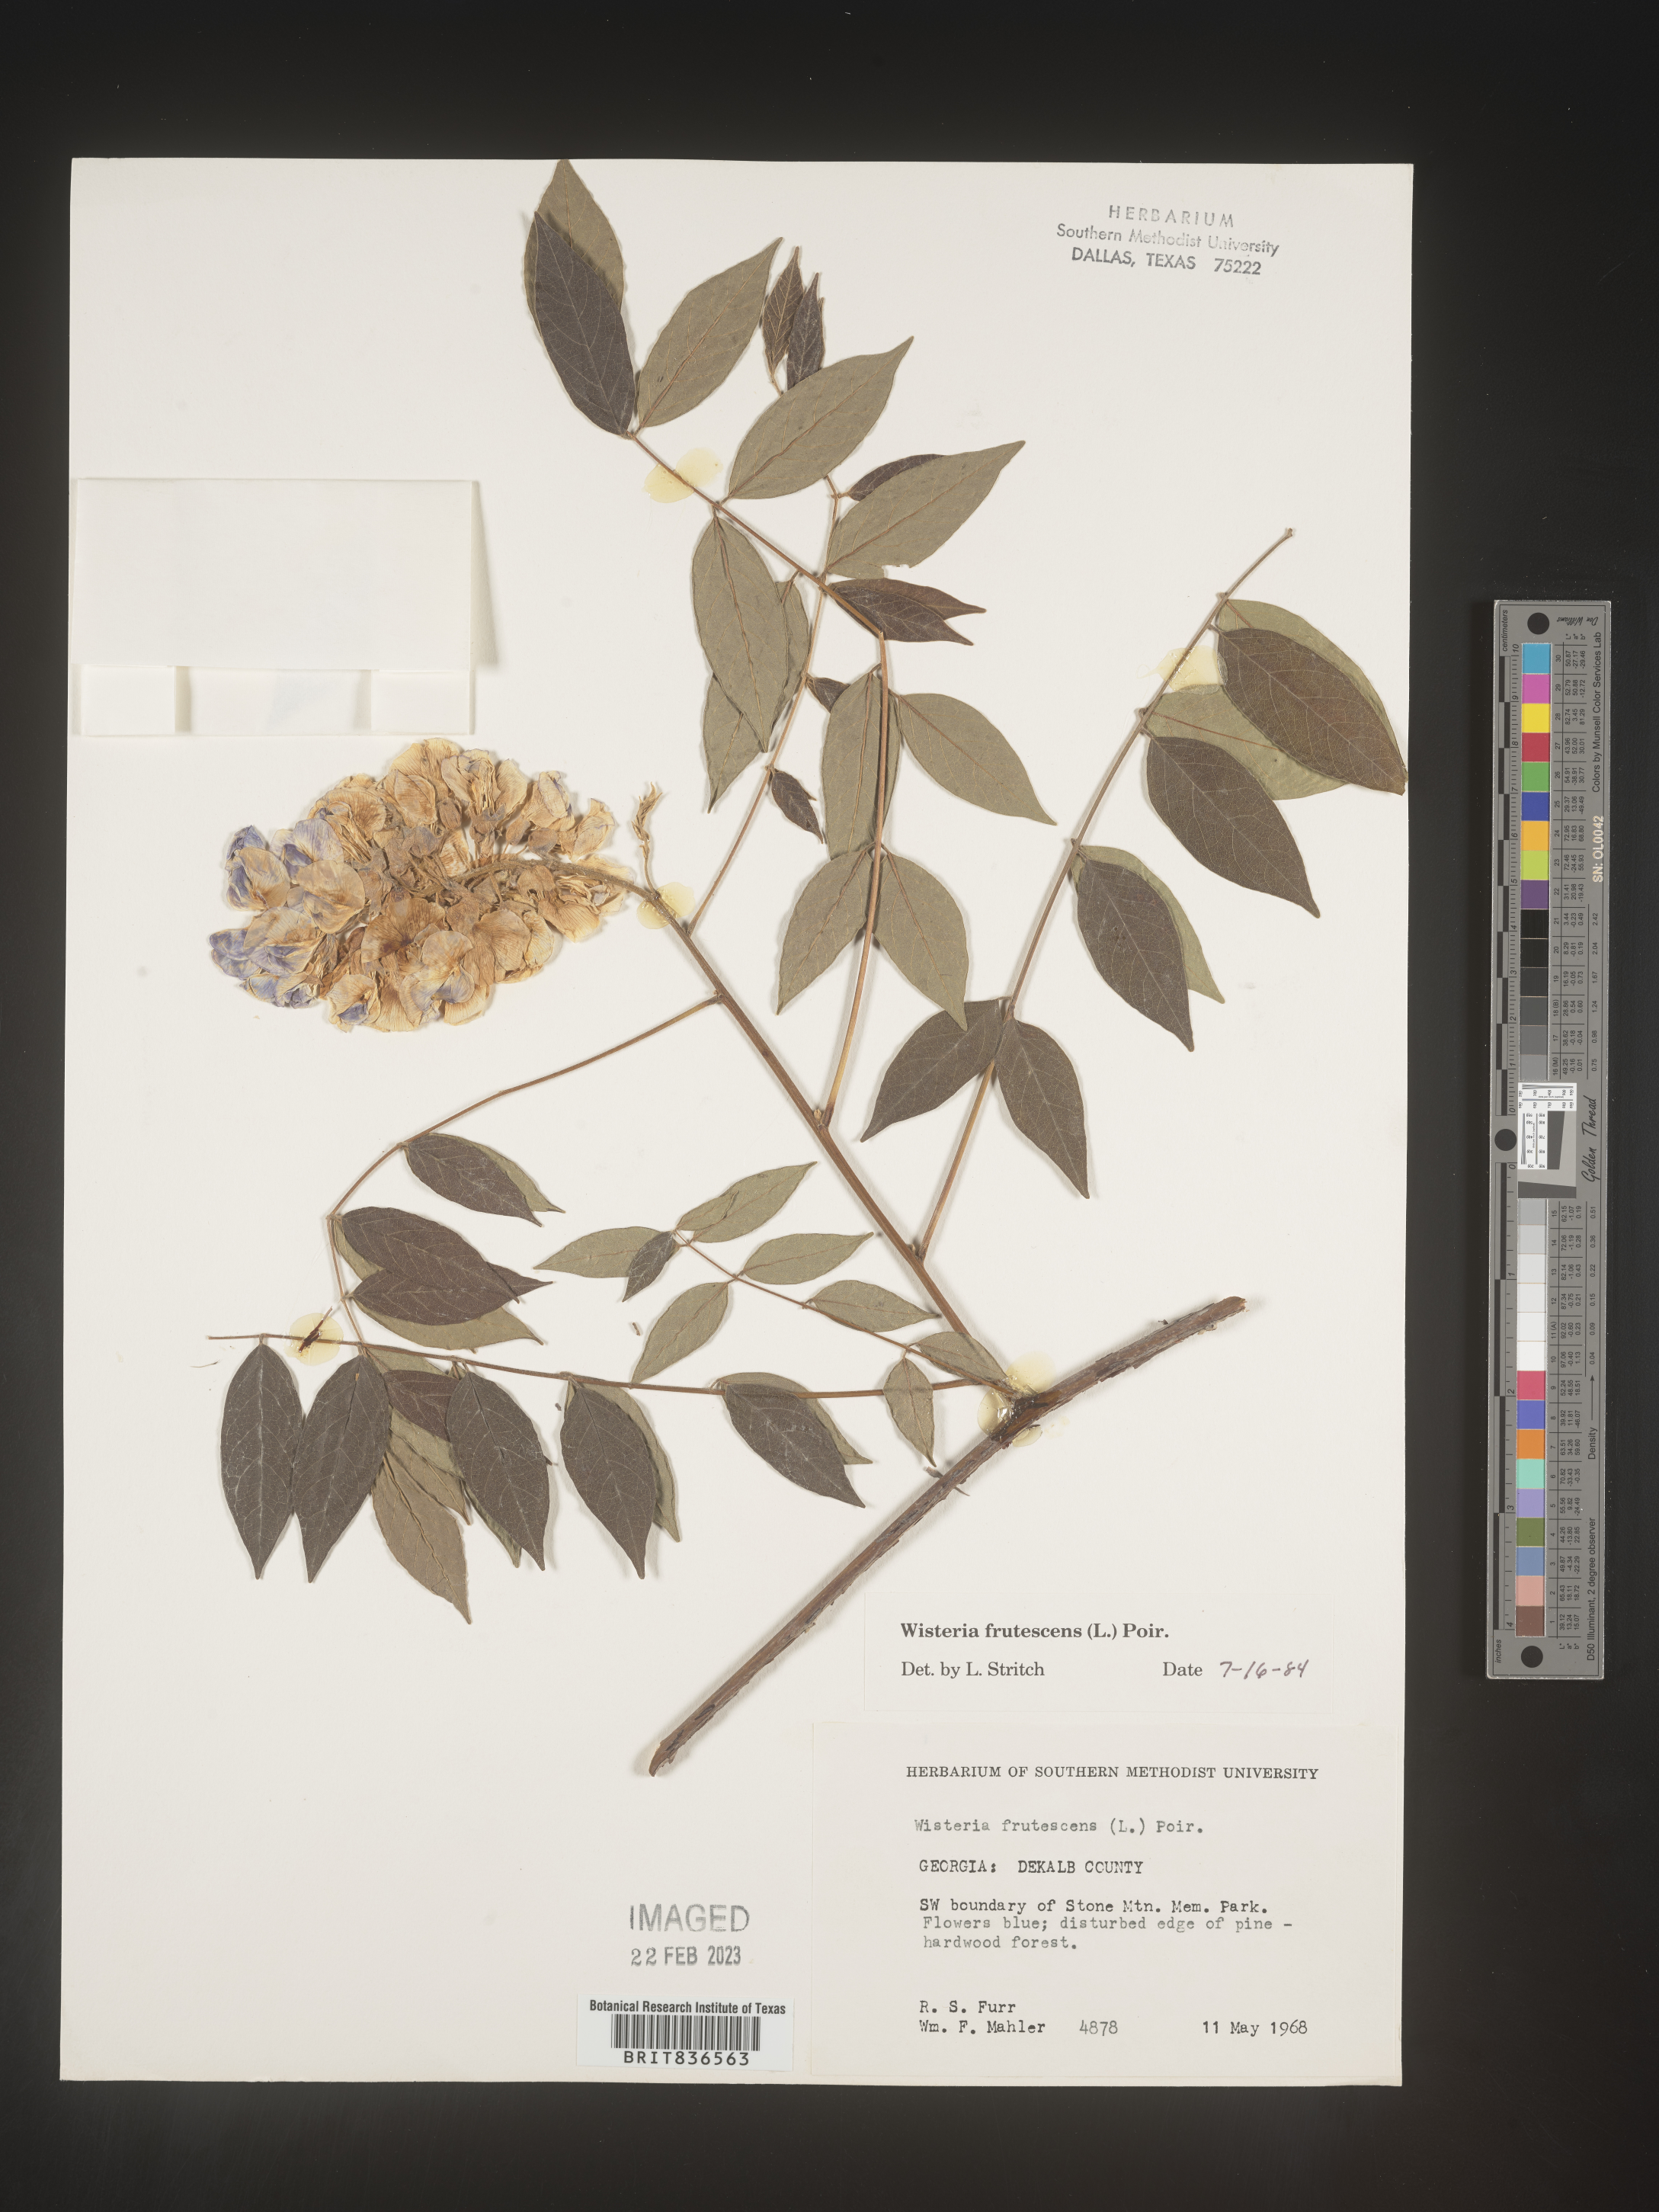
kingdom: Plantae
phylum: Tracheophyta
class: Magnoliopsida
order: Fabales
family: Fabaceae
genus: Wisteria
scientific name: Wisteria
